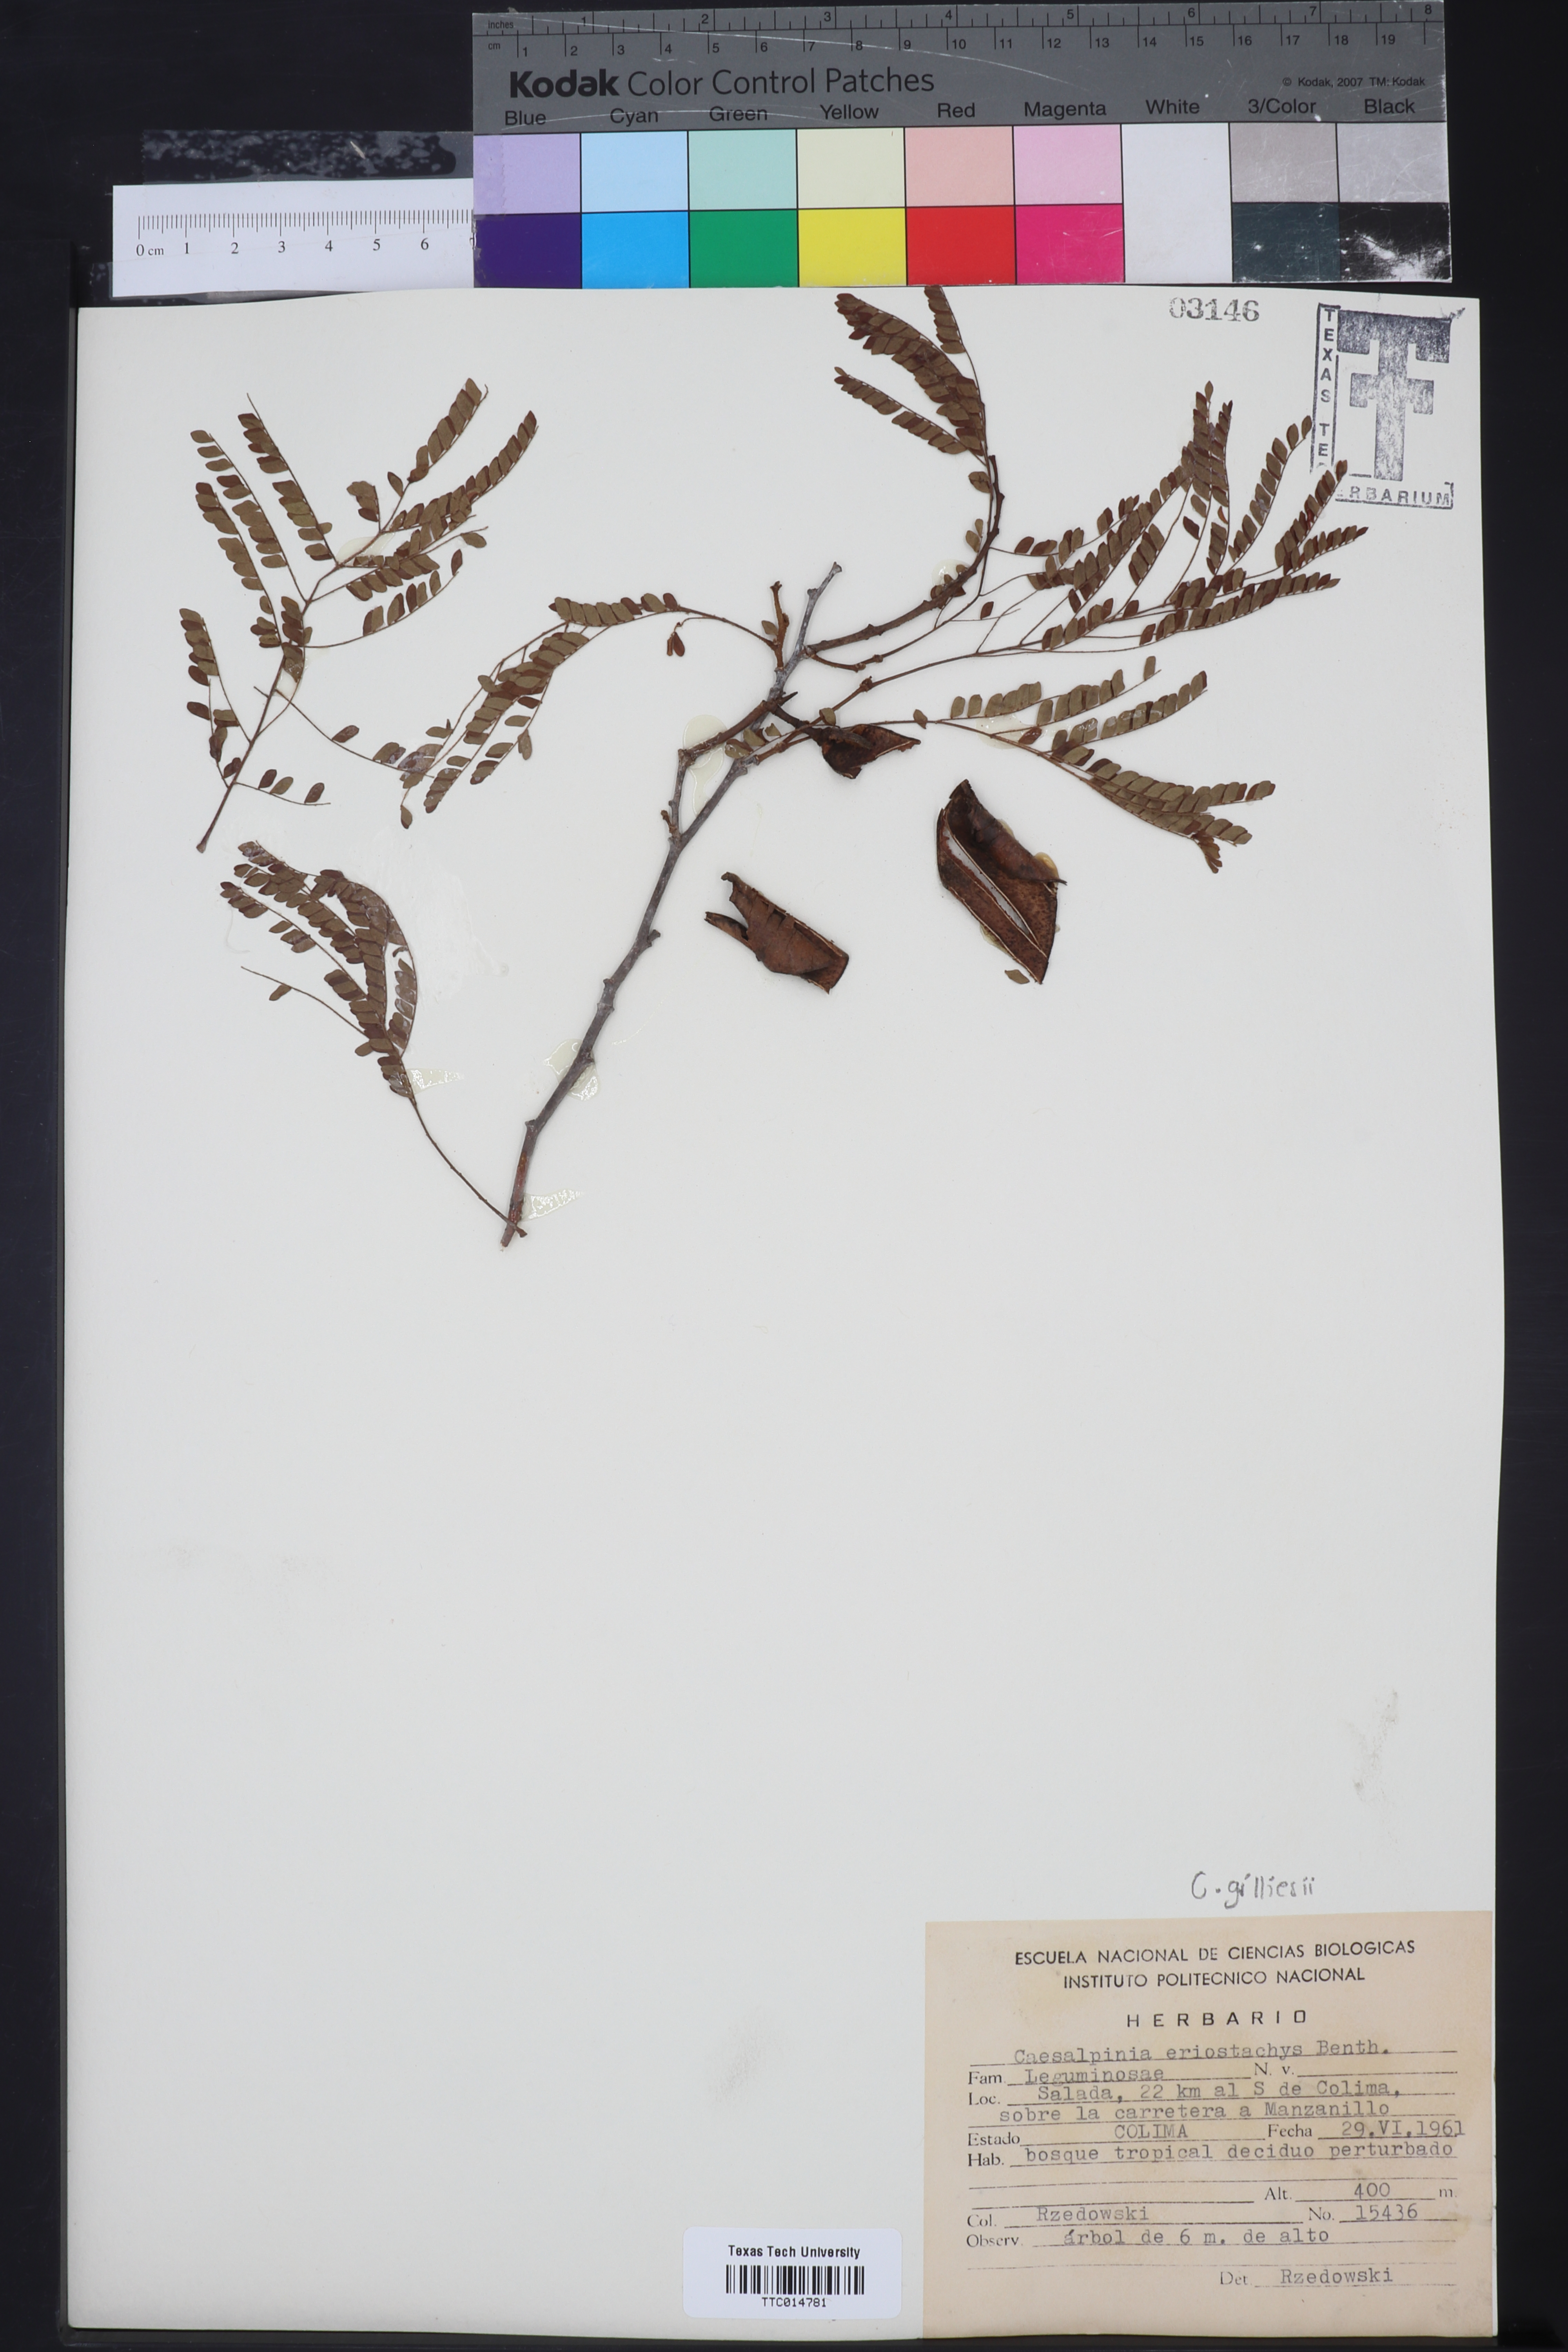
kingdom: Plantae
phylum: Tracheophyta
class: Magnoliopsida
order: Fabales
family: Fabaceae
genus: Cenostigma
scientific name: Cenostigma eriostachys
